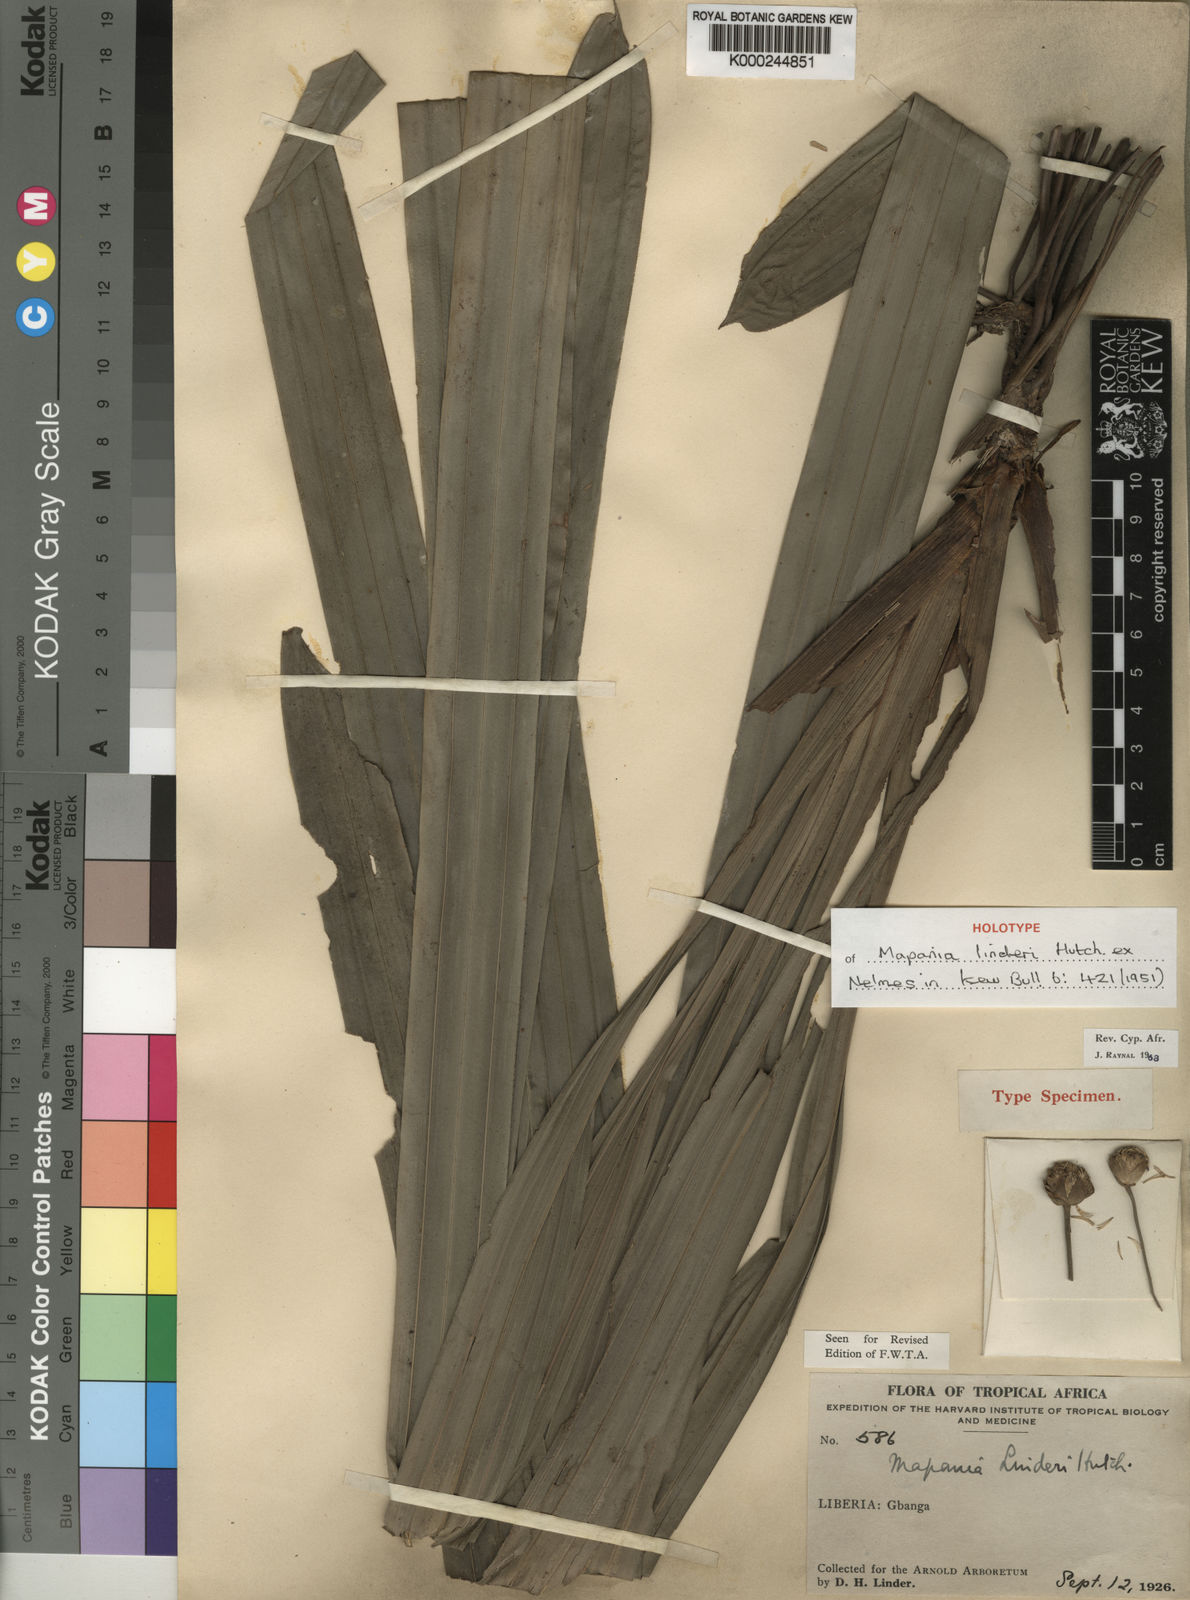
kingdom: Plantae
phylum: Tracheophyta
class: Liliopsida
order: Poales
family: Cyperaceae
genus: Mapania
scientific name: Mapania linderi
